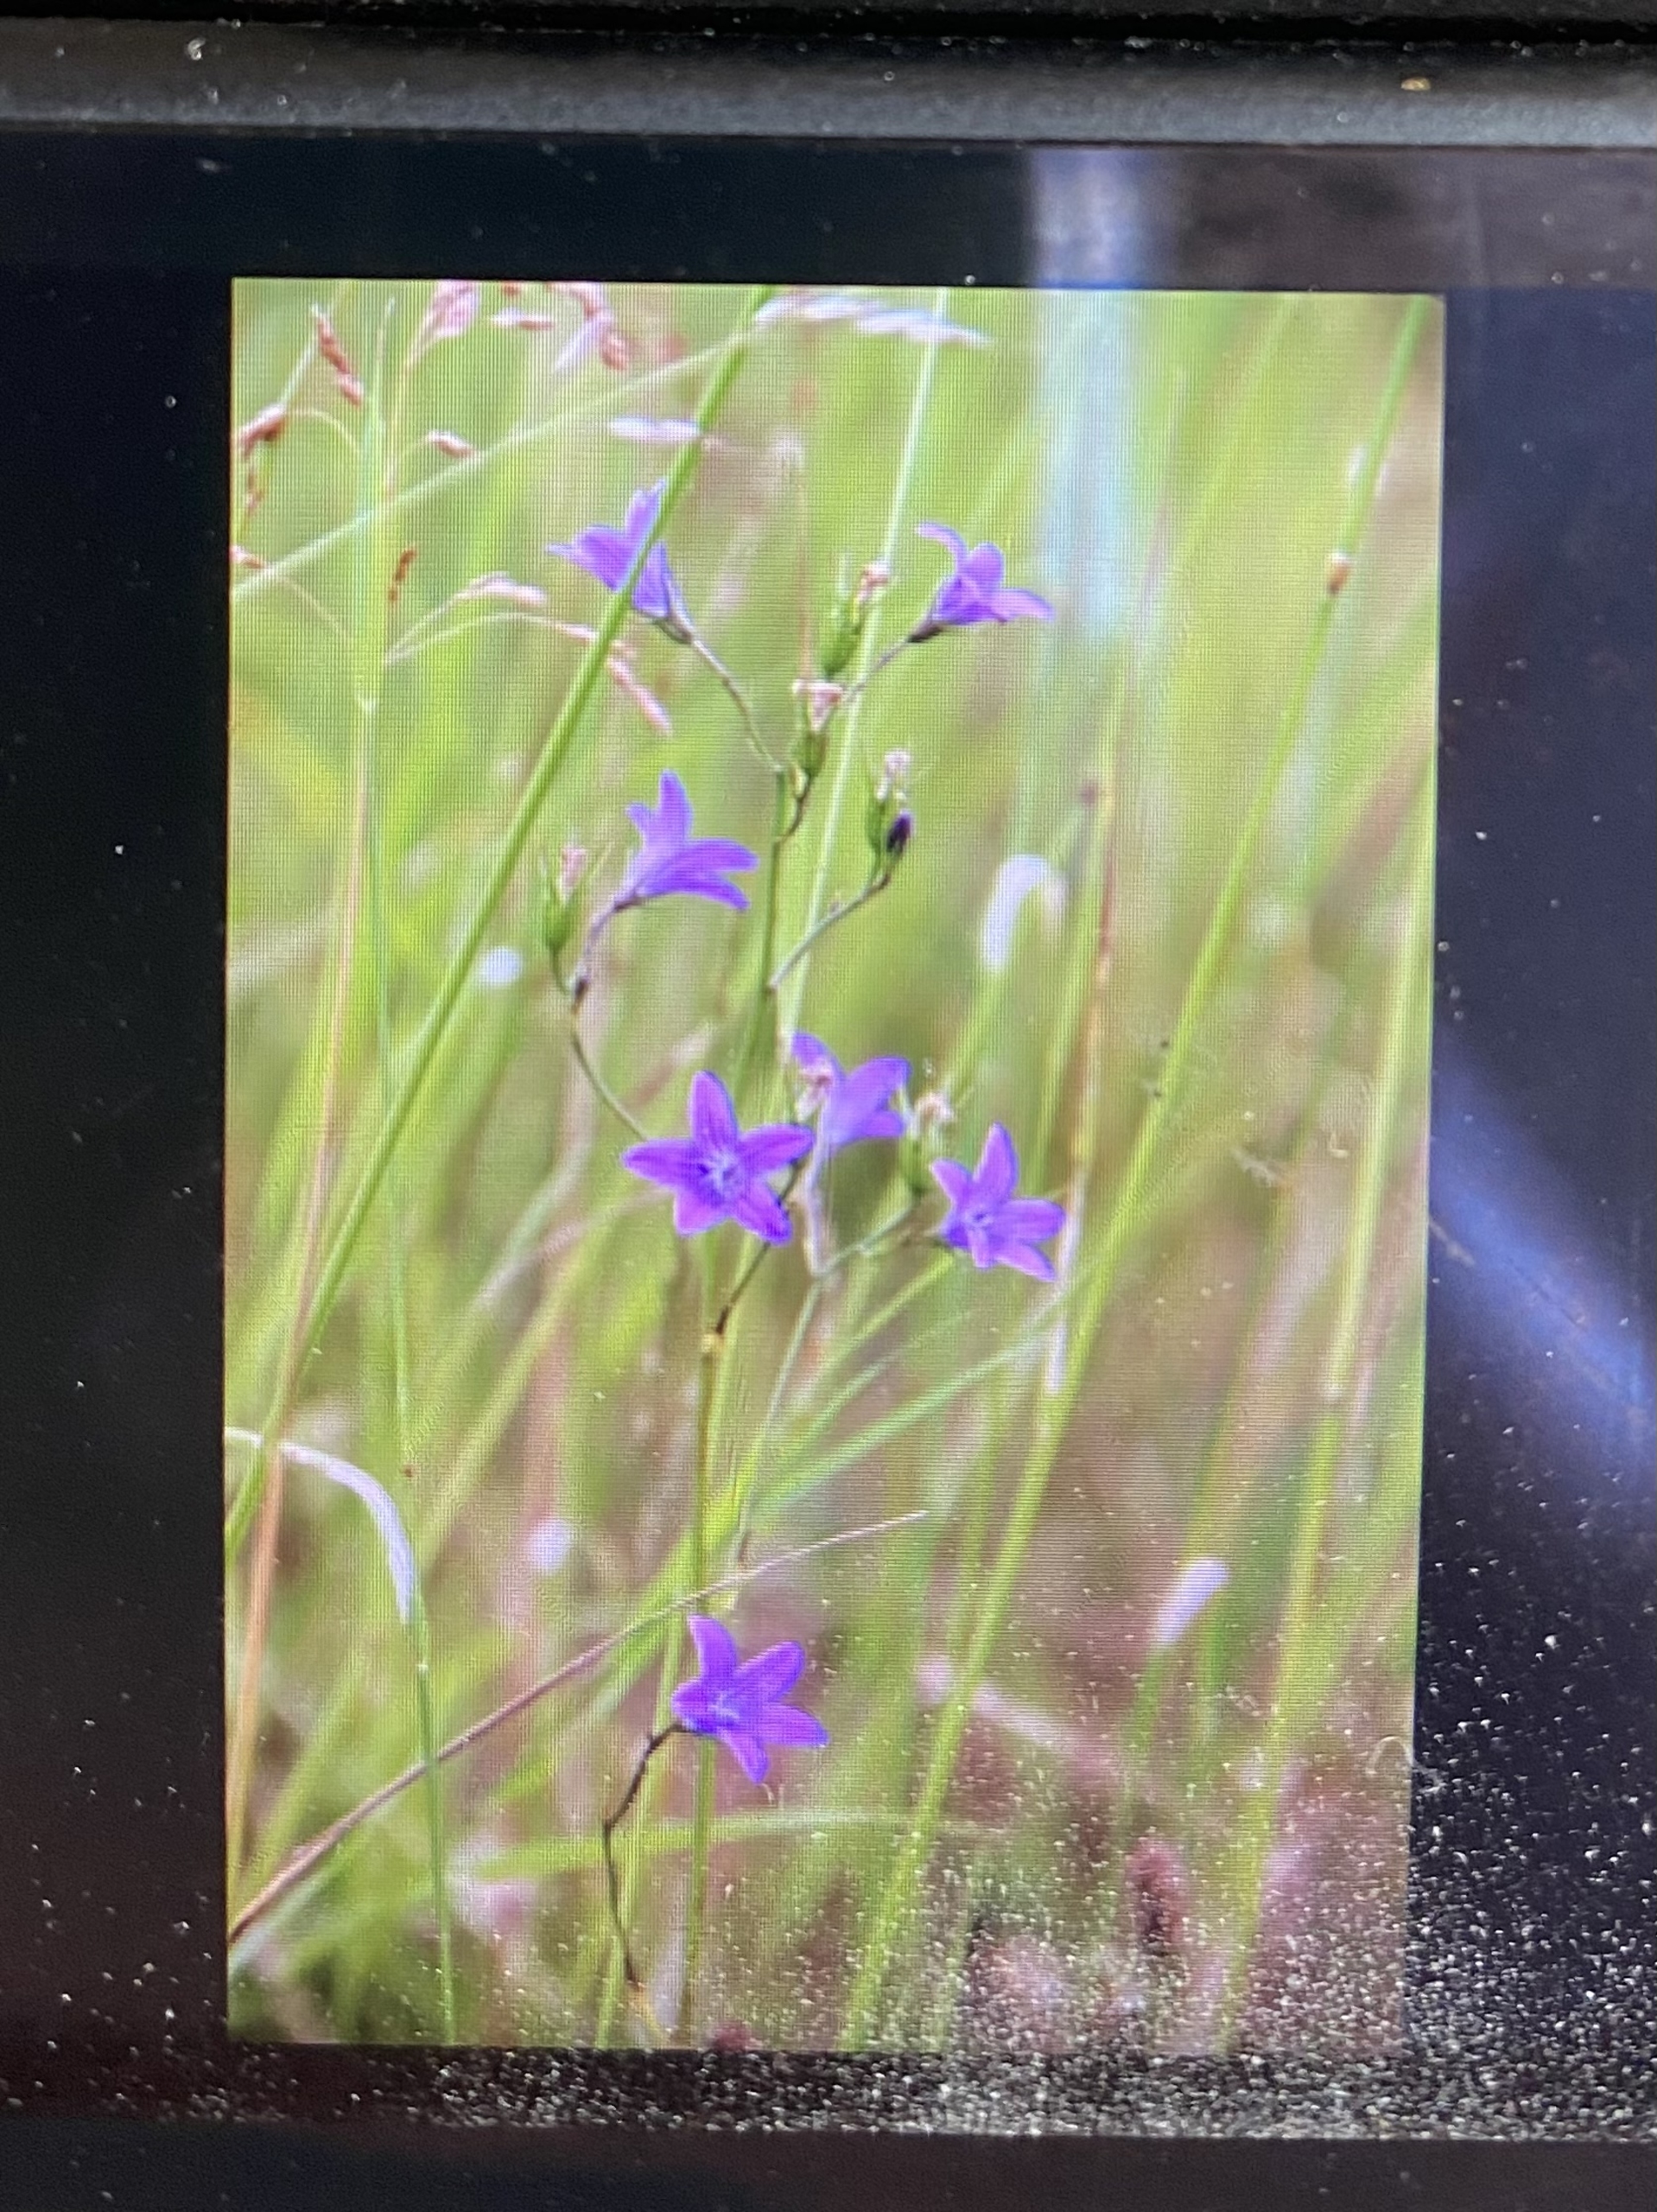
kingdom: Plantae
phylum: Tracheophyta
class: Magnoliopsida
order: Asterales
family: Campanulaceae
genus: Campanula
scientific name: Campanula patula
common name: Eng-klokke
